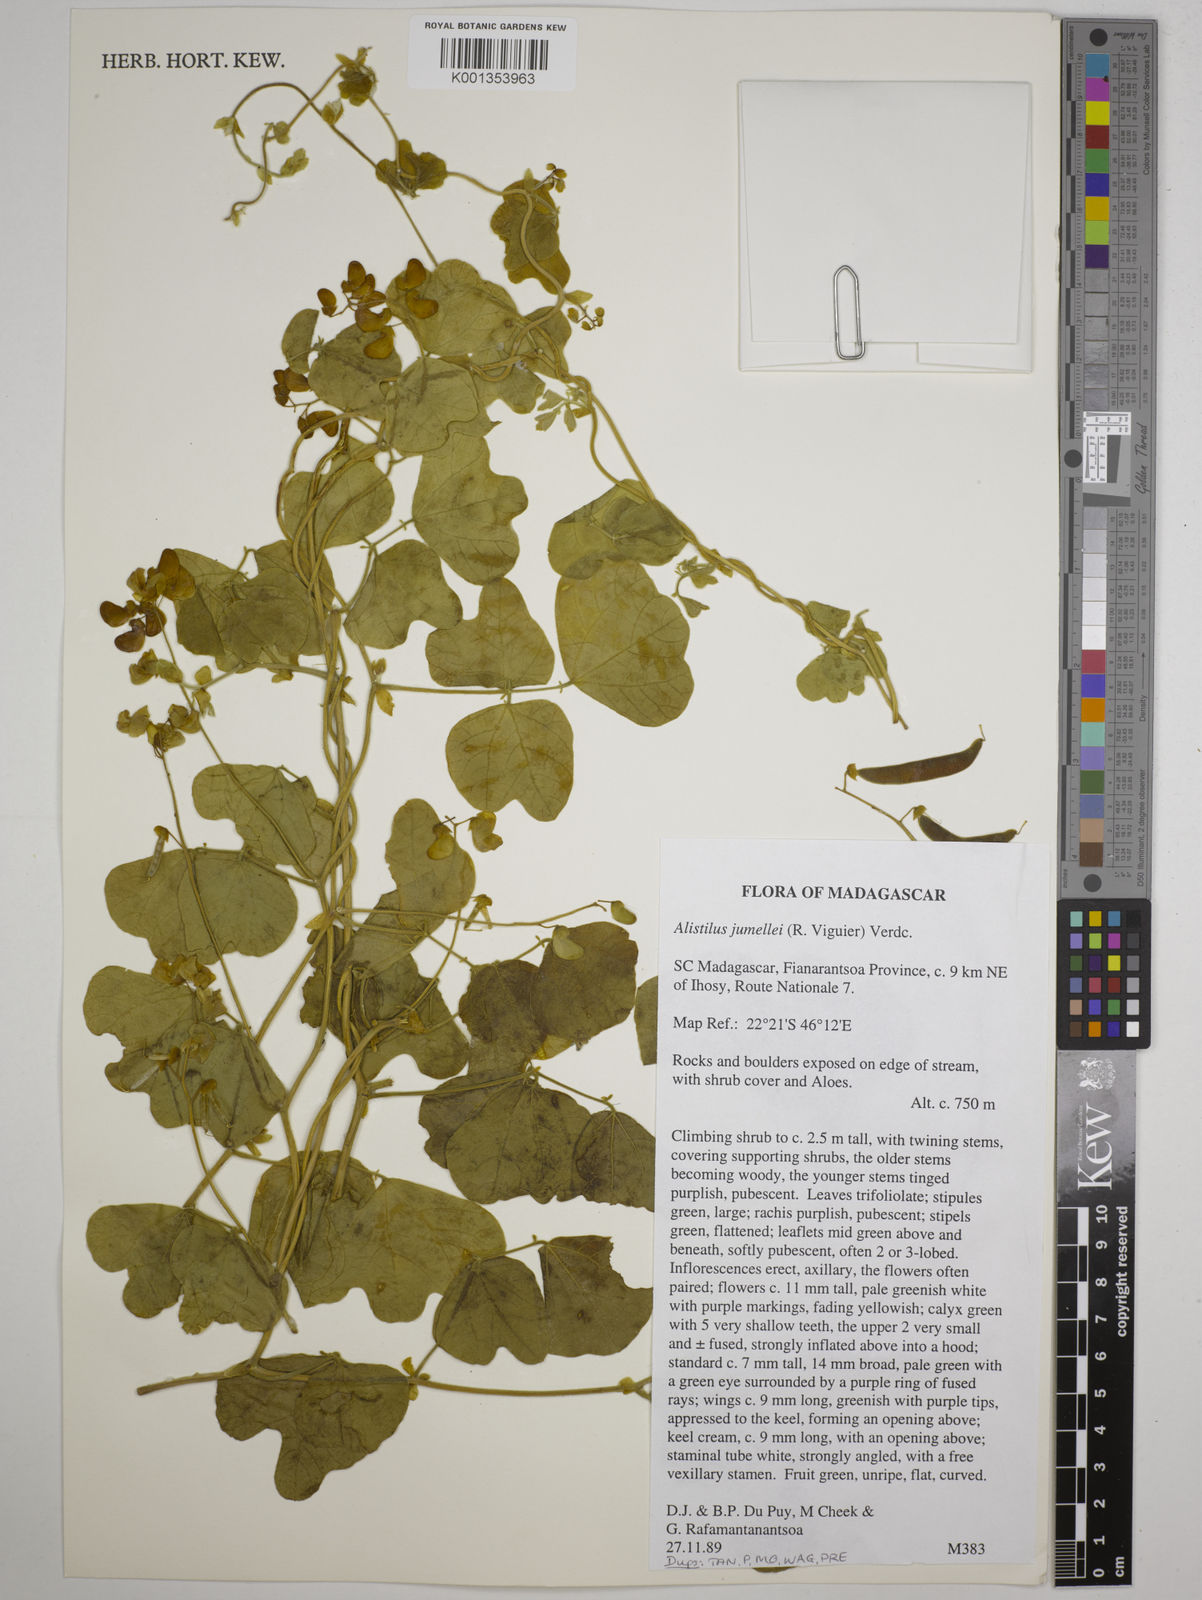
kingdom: Plantae
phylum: Tracheophyta
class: Magnoliopsida
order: Fabales
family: Fabaceae
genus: Alistilus
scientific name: Alistilus jumellei
